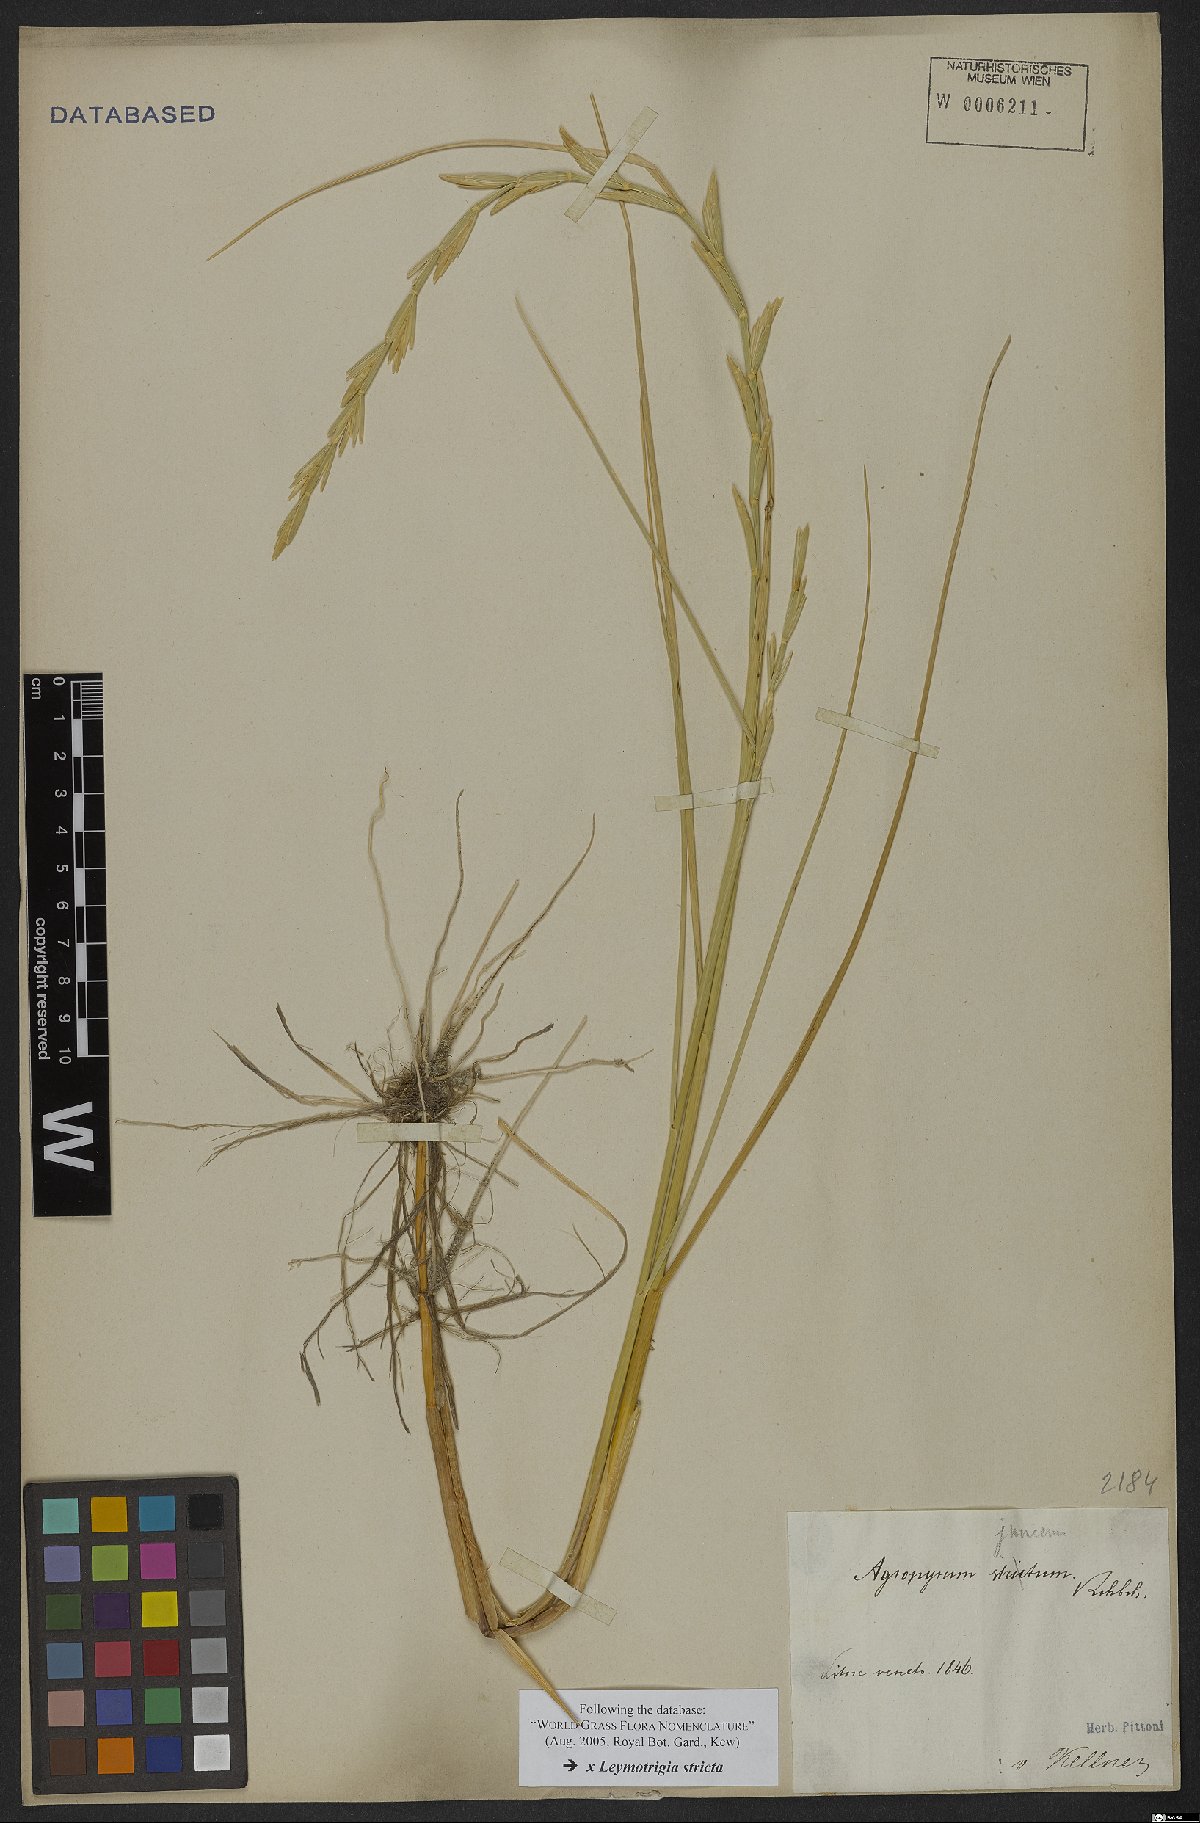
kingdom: Plantae
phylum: Tracheophyta
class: Liliopsida
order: Poales
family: Poaceae
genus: Elyleymus
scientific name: Elyleymus strictus
